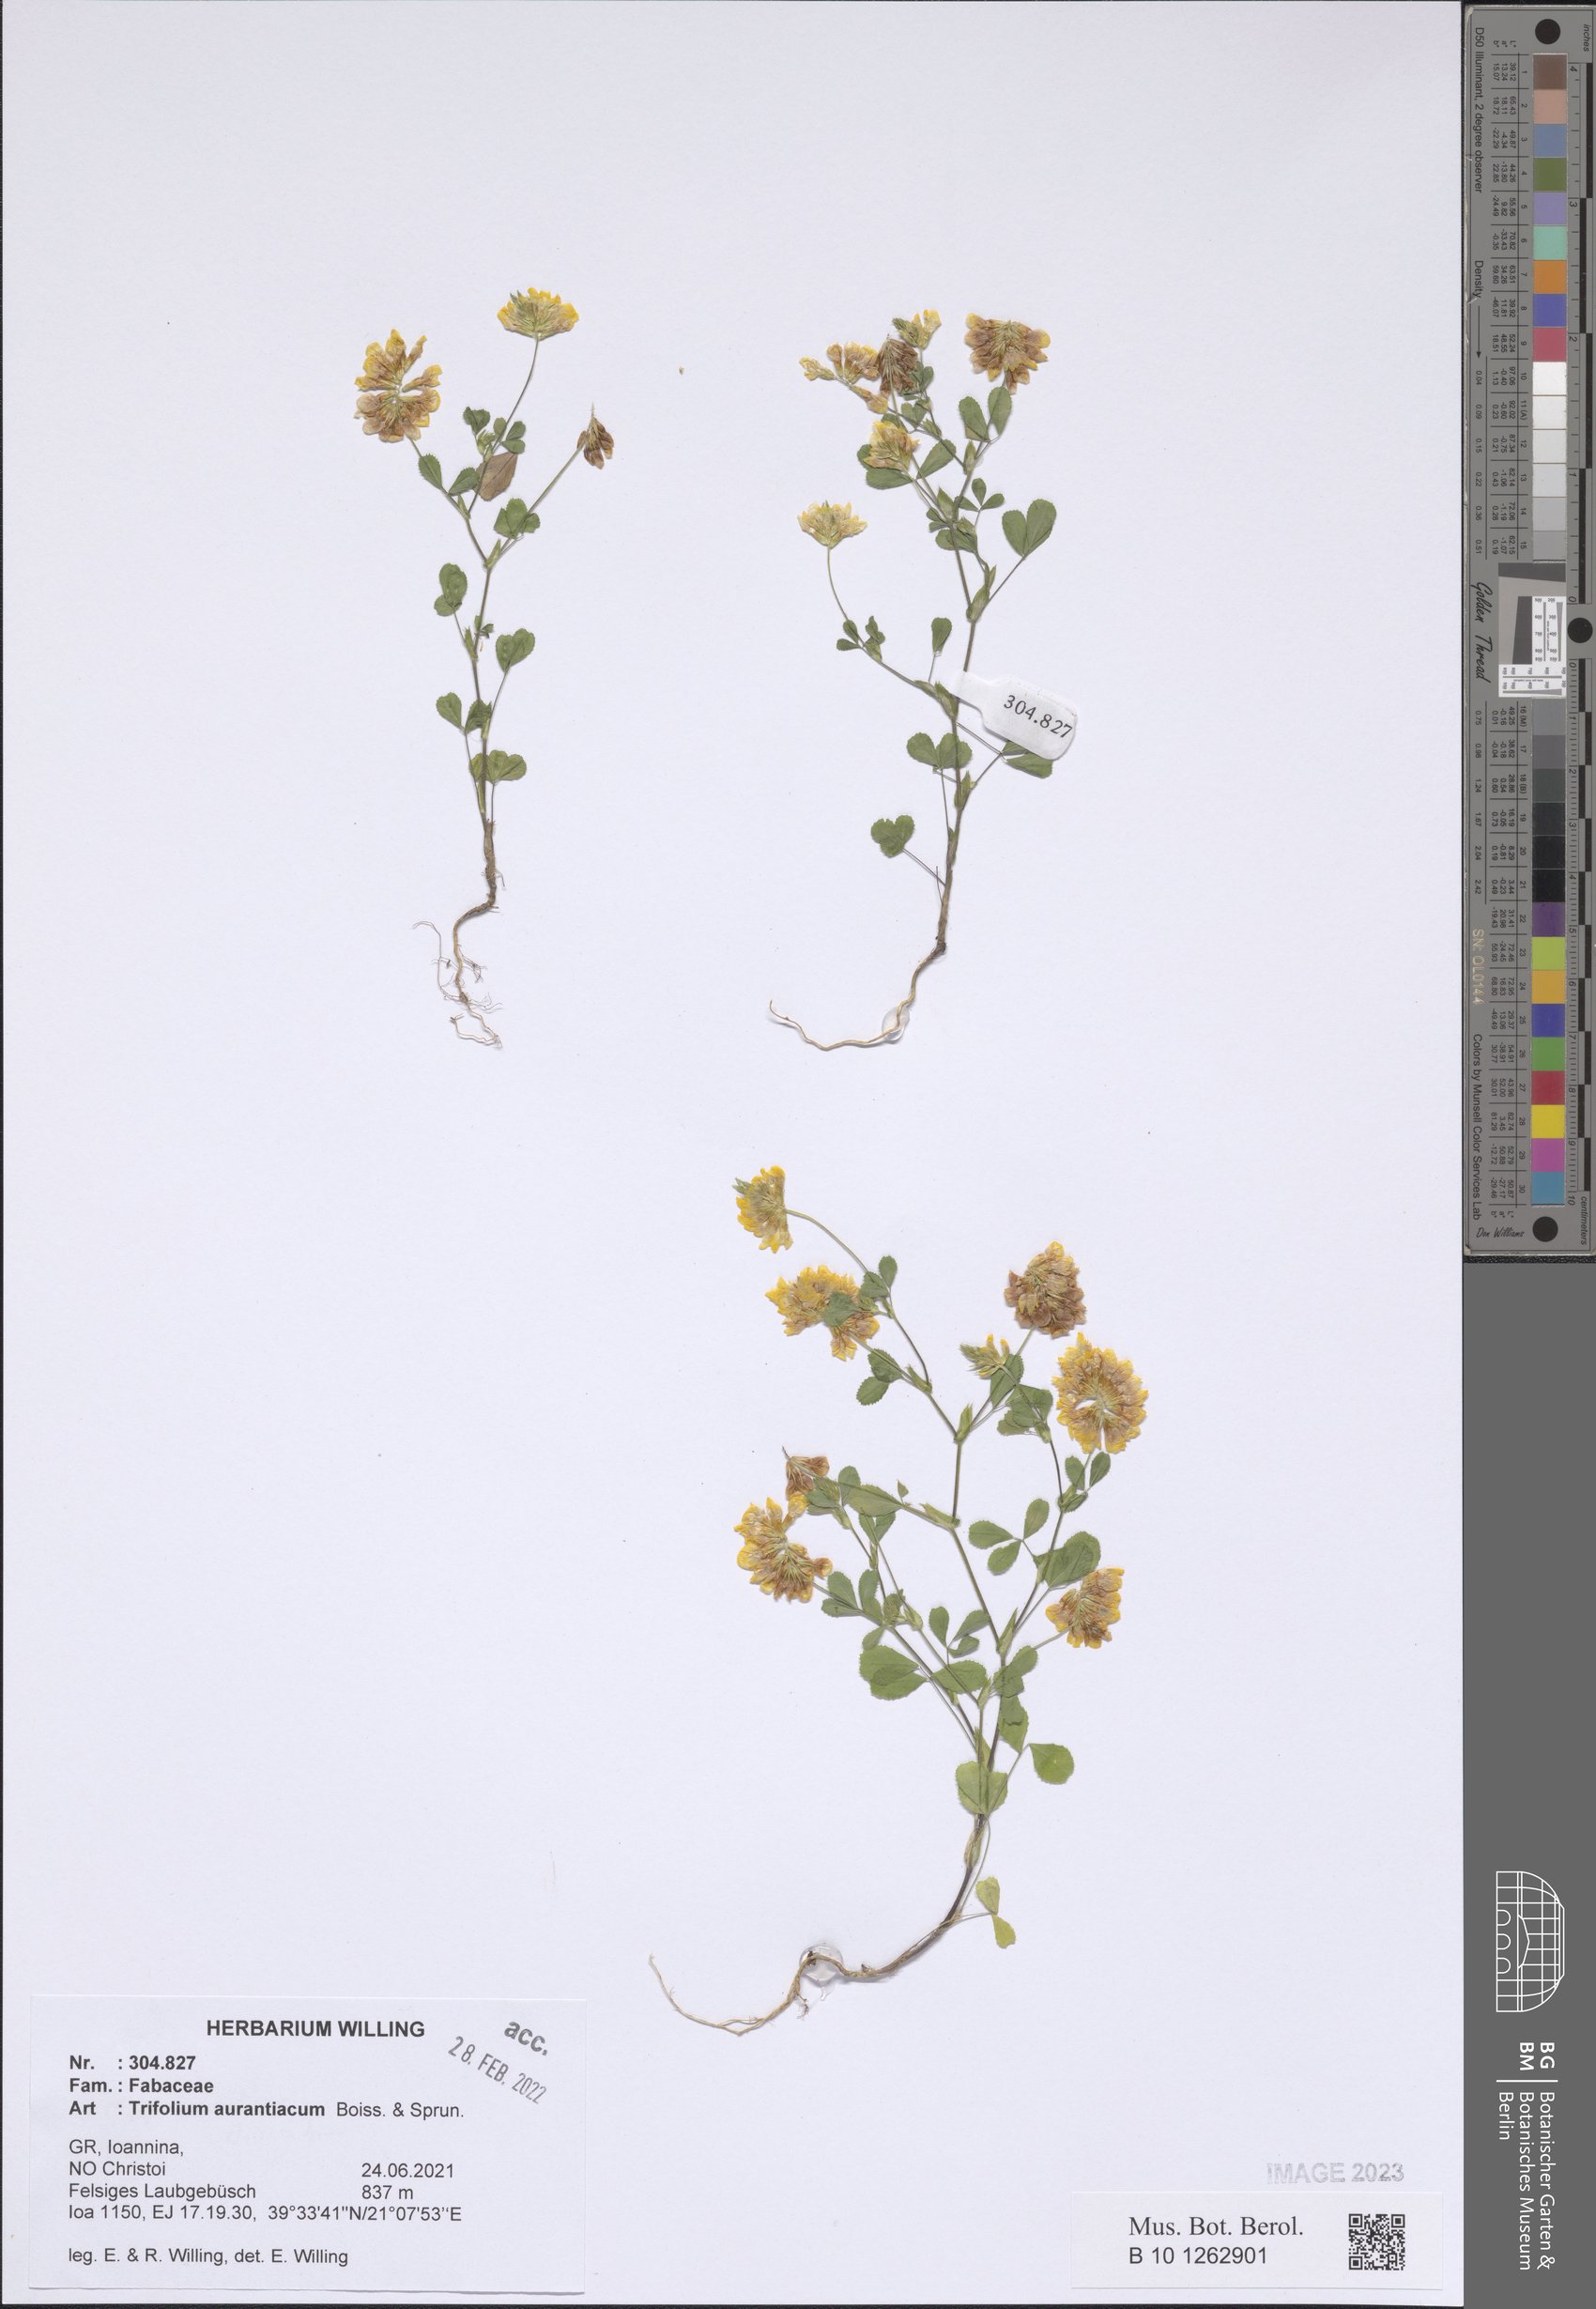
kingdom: Plantae
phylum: Tracheophyta
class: Magnoliopsida
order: Fabales
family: Fabaceae
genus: Trifolium
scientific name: Trifolium aurantiacum
